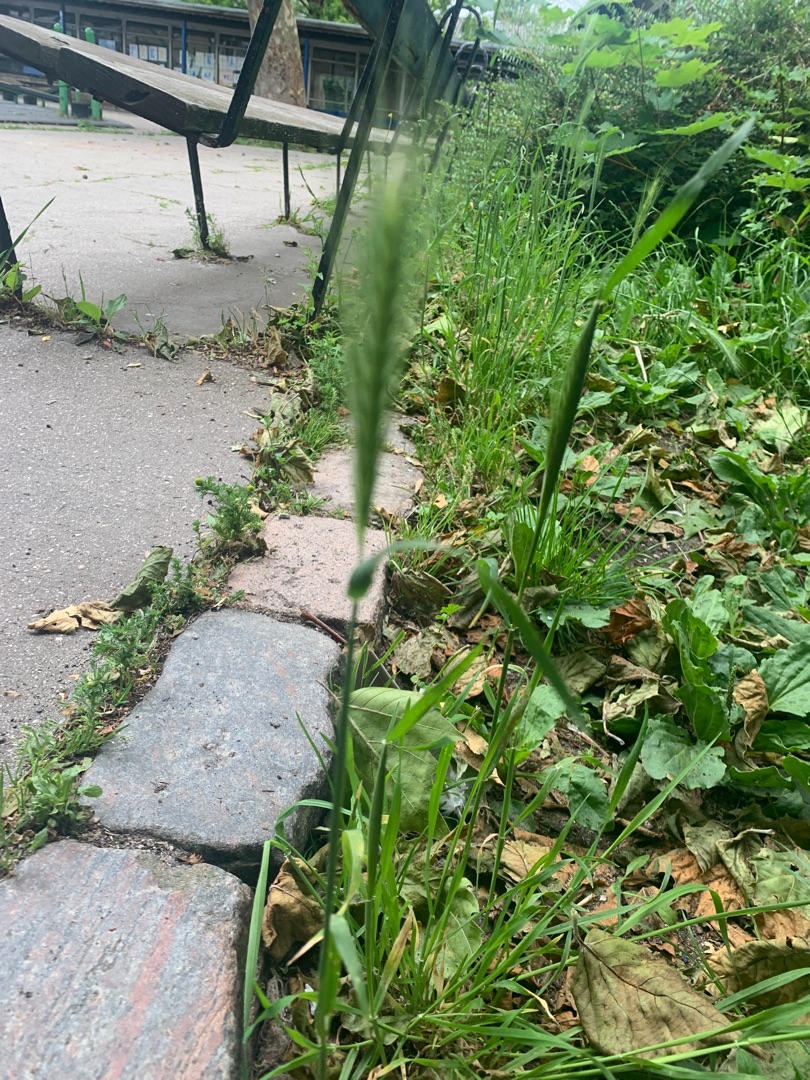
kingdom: Plantae
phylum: Tracheophyta
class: Liliopsida
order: Poales
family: Poaceae
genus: Hordeum
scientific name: Hordeum murinum
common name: Gold byg
